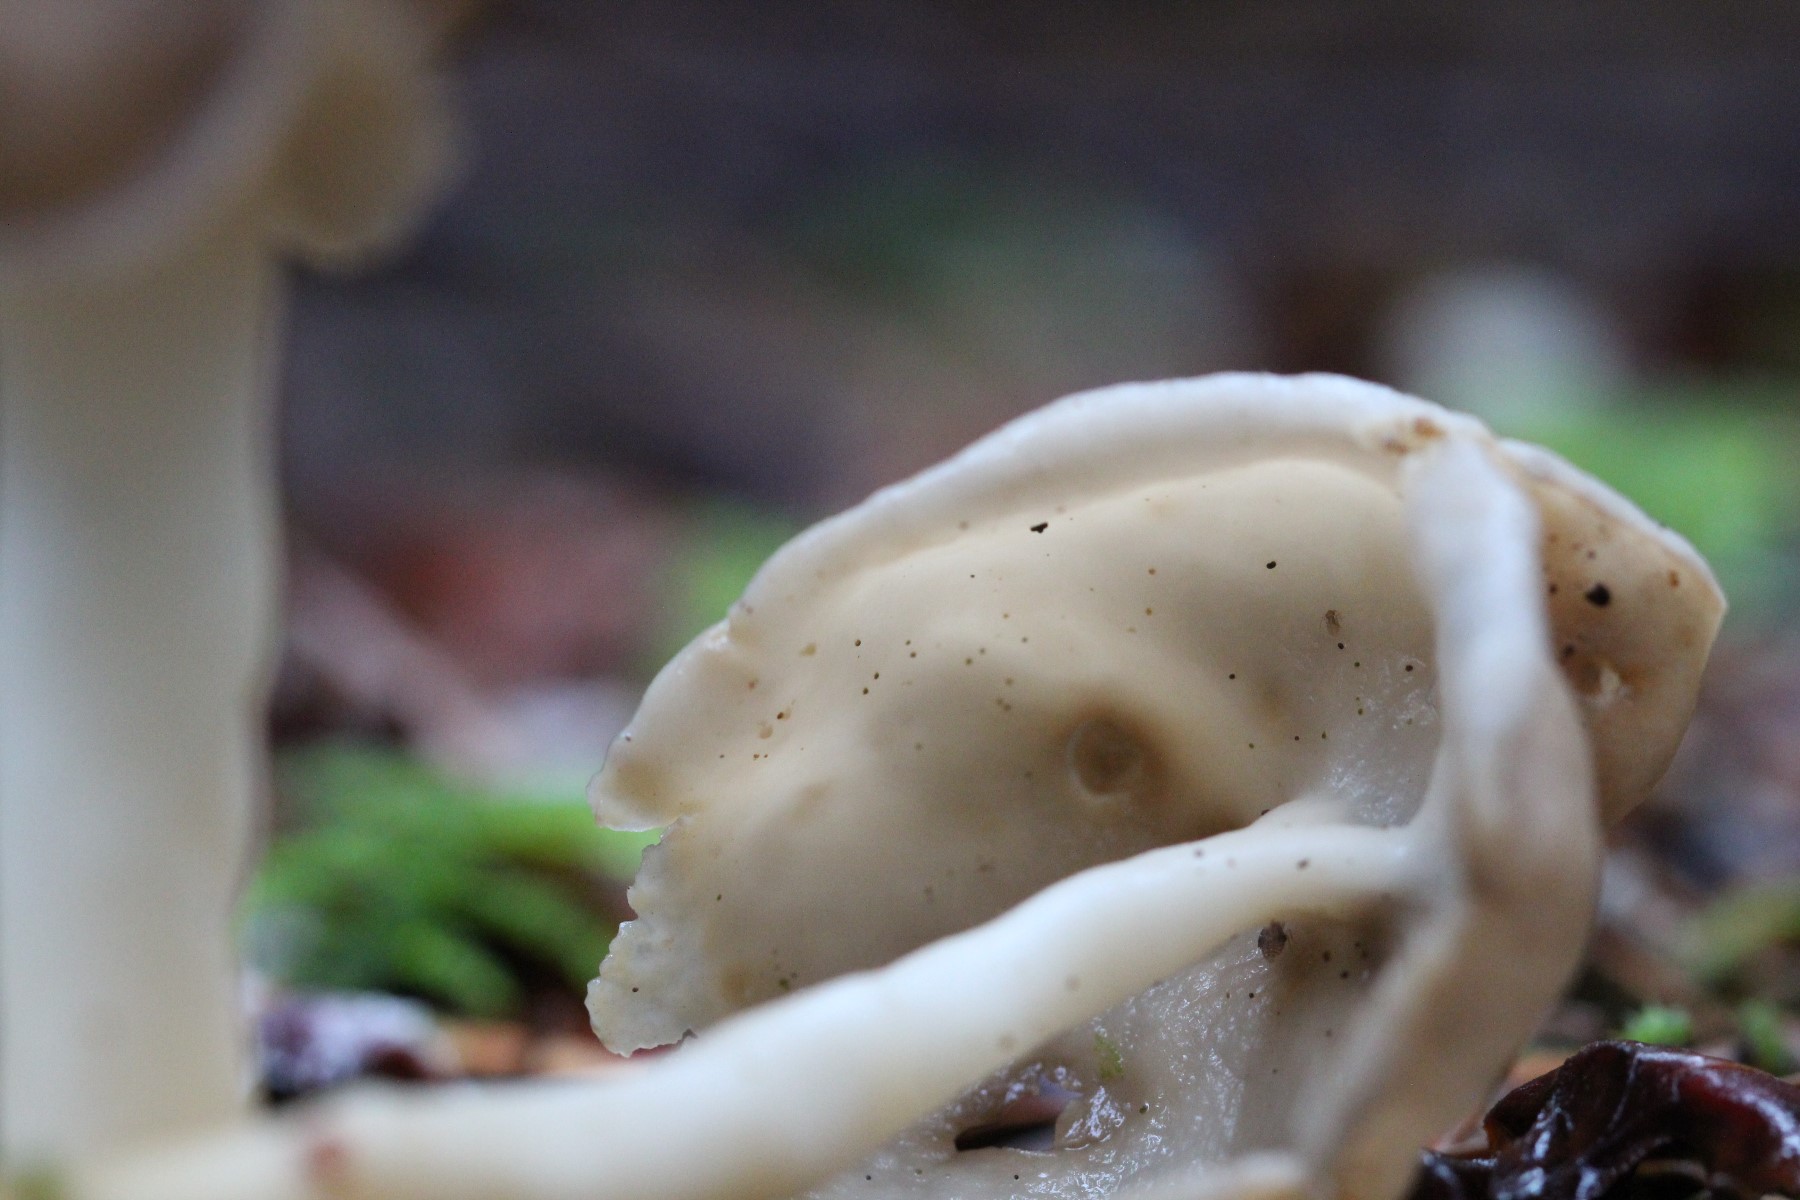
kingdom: Fungi
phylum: Ascomycota
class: Pezizomycetes
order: Pezizales
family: Helvellaceae
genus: Helvella
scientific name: Helvella elastica
